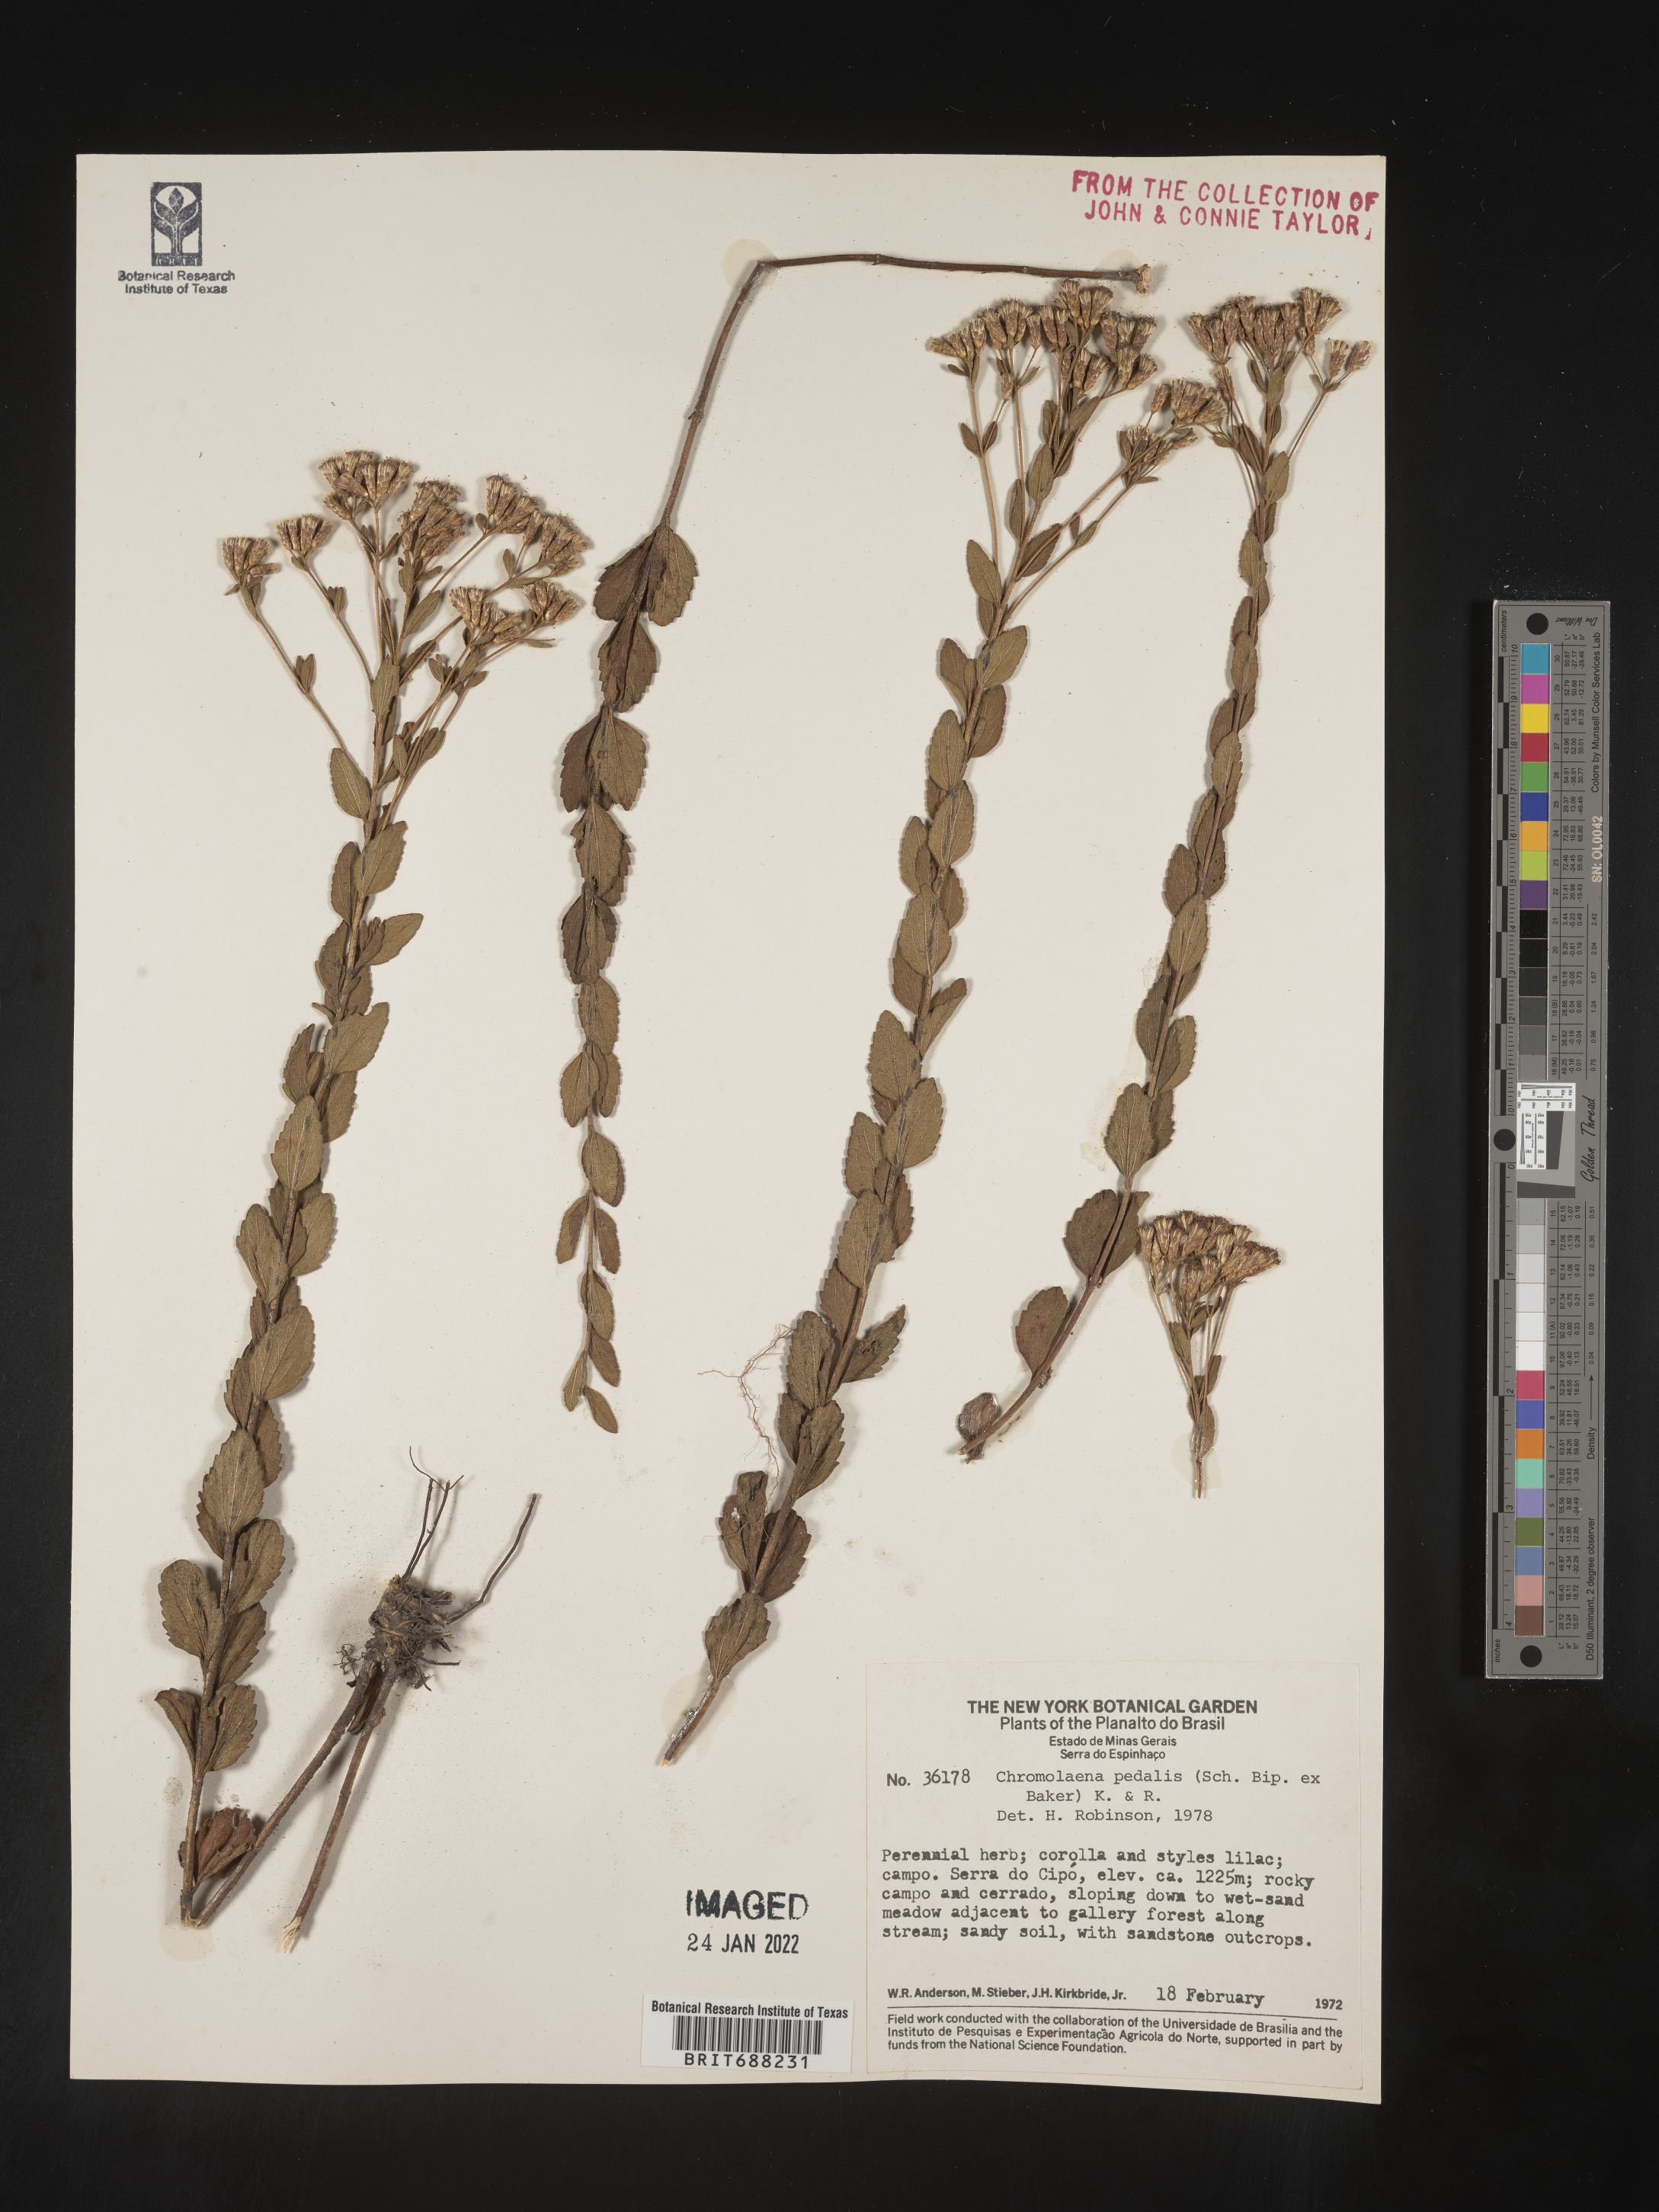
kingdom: Plantae
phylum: Tracheophyta
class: Magnoliopsida
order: Asterales
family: Asteraceae
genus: Chromolaena
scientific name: Chromolaena
